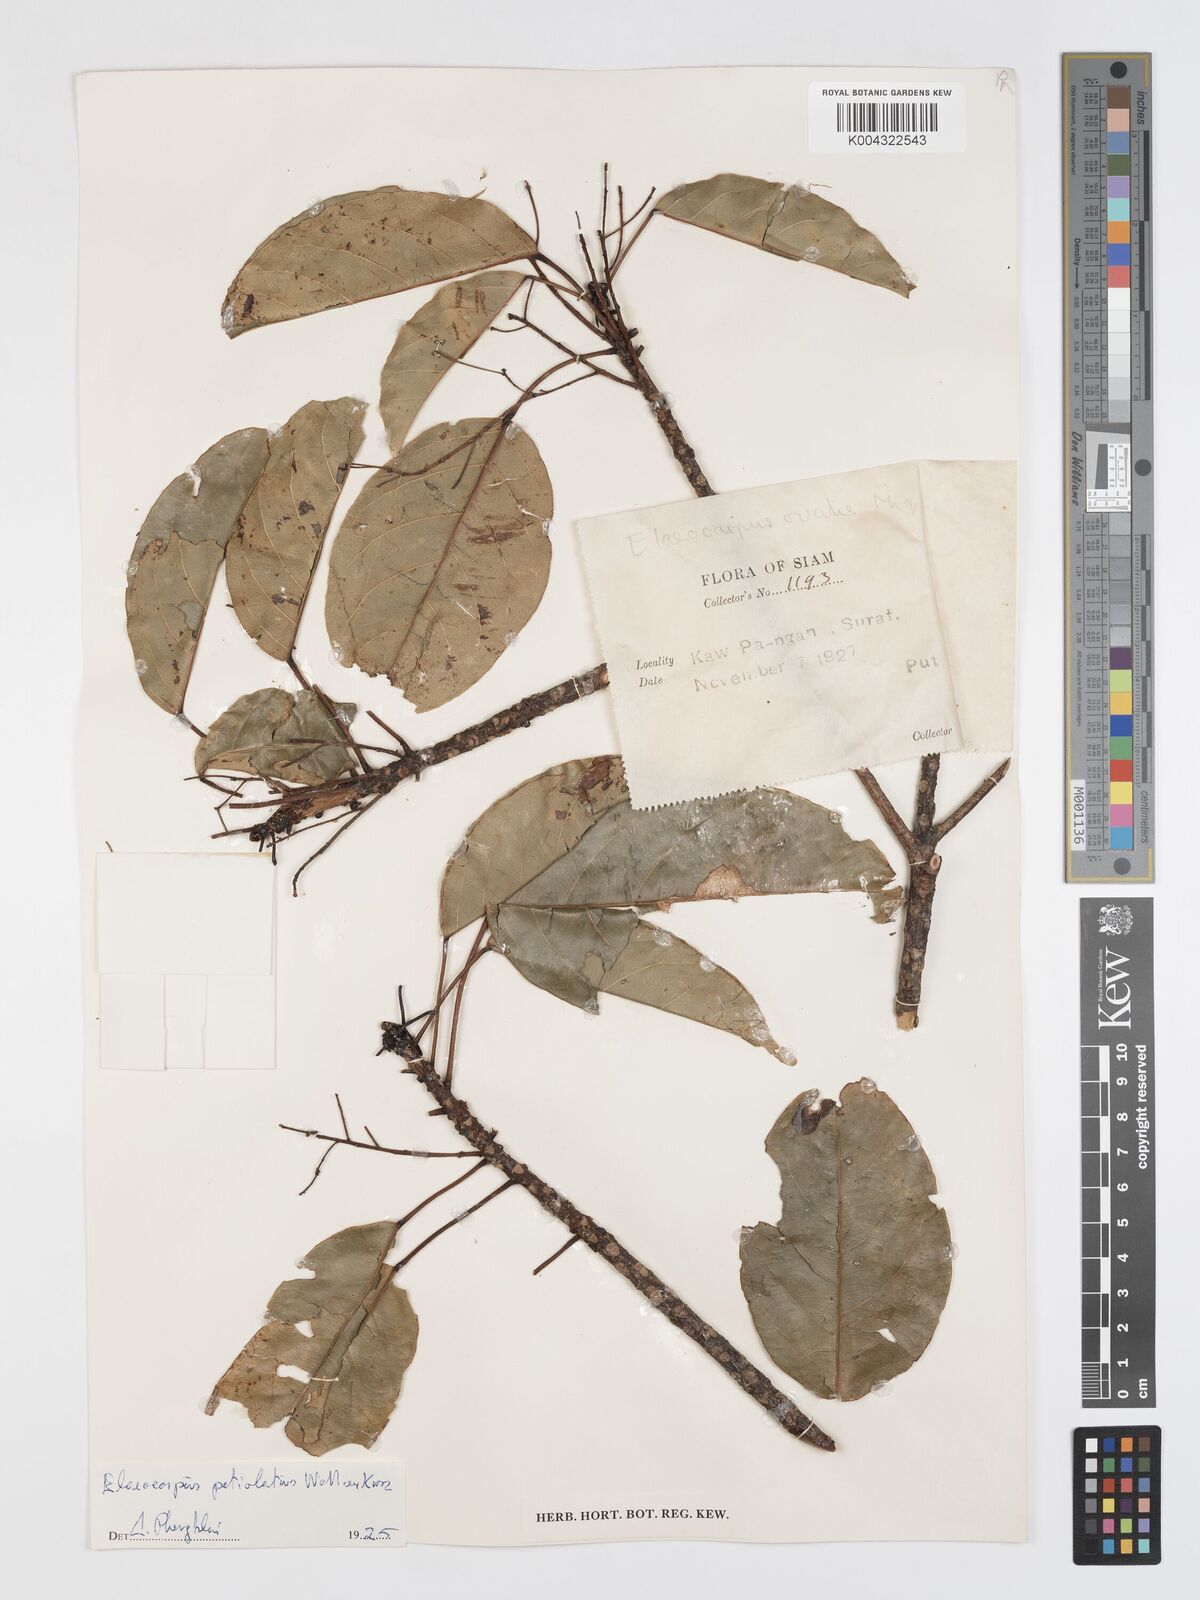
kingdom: Plantae
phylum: Tracheophyta
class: Magnoliopsida
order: Oxalidales
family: Elaeocarpaceae
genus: Elaeocarpus
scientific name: Elaeocarpus petiolatus
